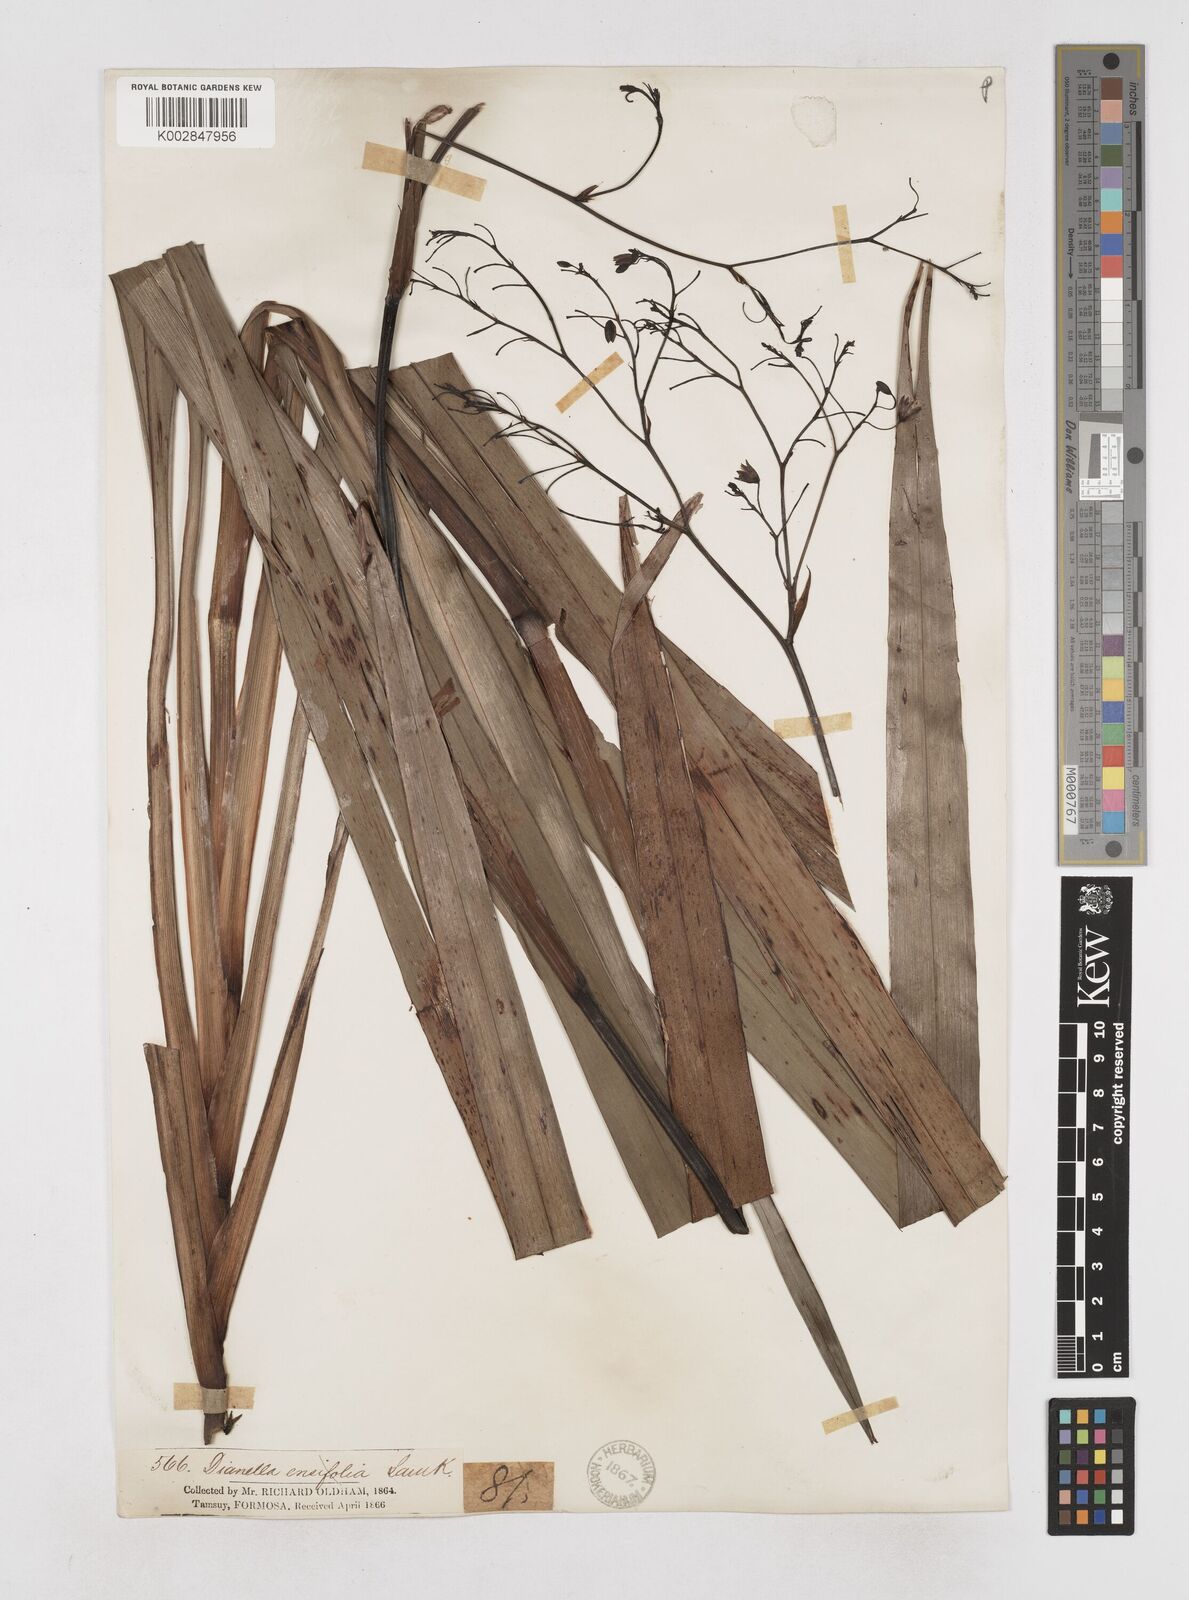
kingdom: Plantae
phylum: Tracheophyta
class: Liliopsida
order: Asparagales
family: Asphodelaceae
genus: Dianella
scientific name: Dianella ensifolia
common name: New zealand lilyplant
